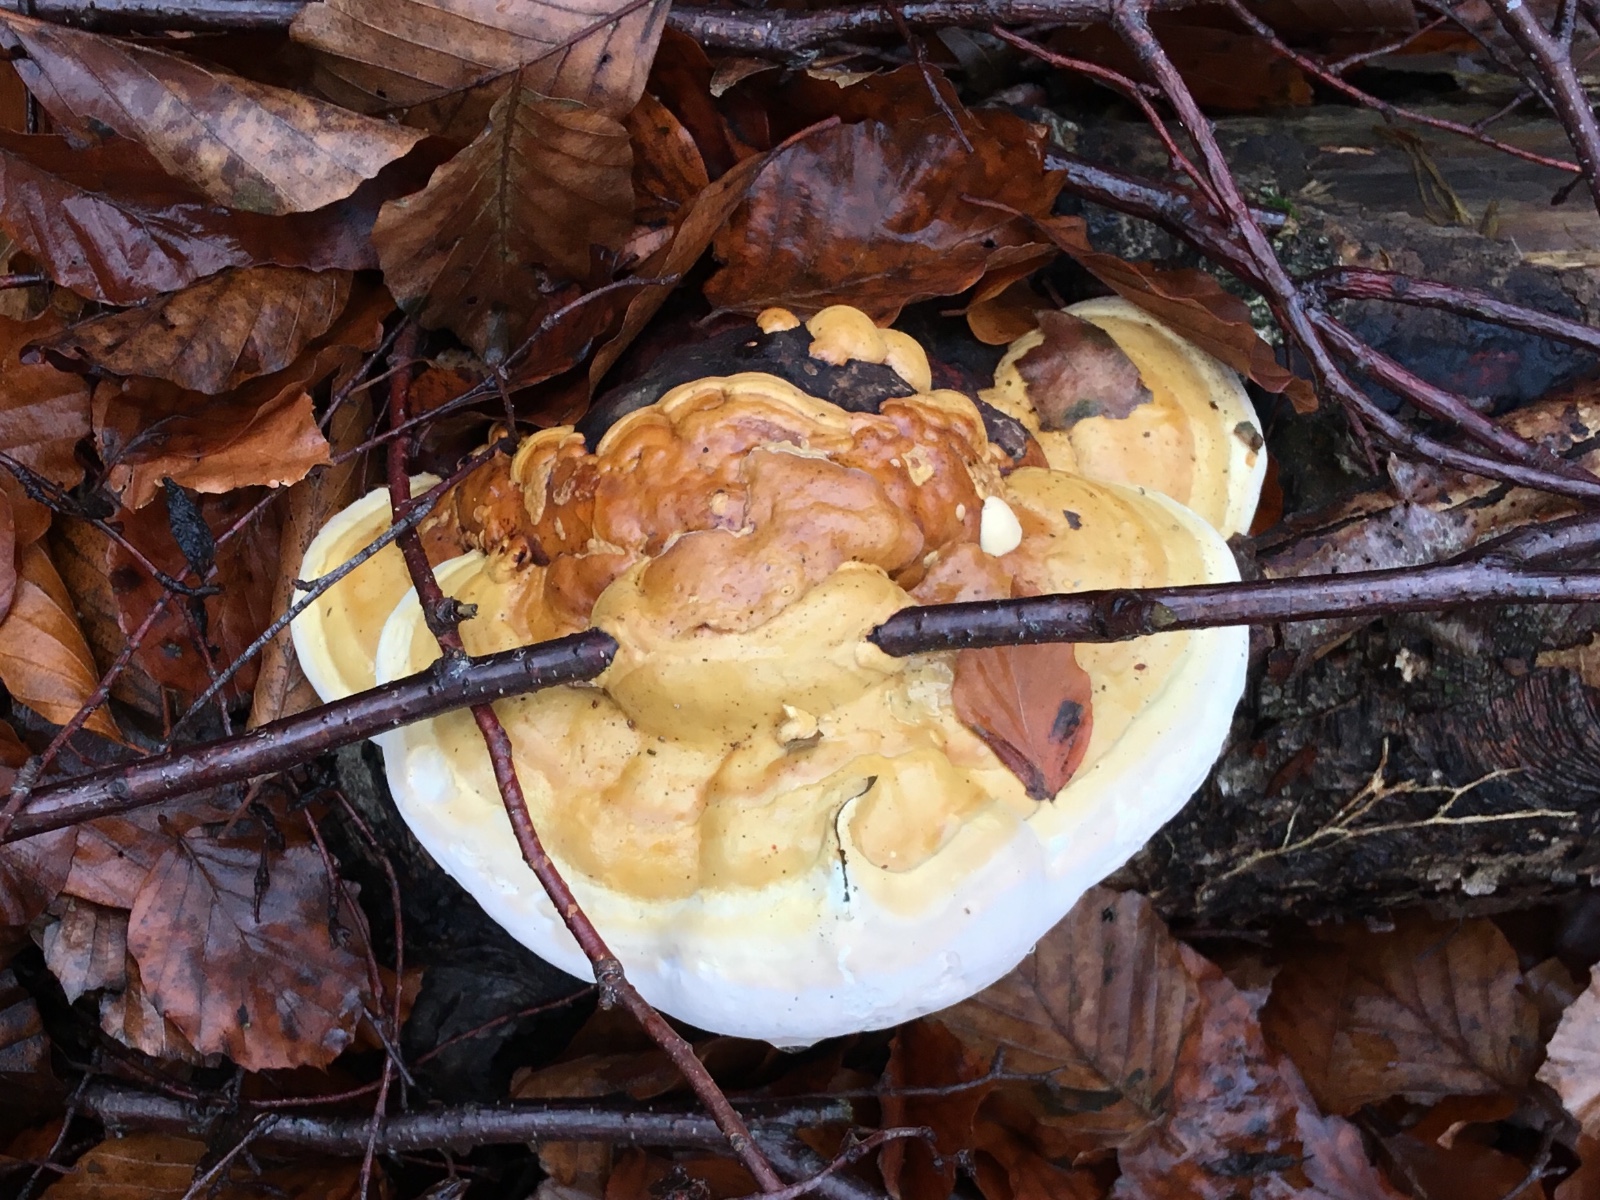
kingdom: Fungi
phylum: Basidiomycota
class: Agaricomycetes
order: Polyporales
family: Fomitopsidaceae
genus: Fomitopsis
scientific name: Fomitopsis pinicola
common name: randbæltet hovporesvamp
